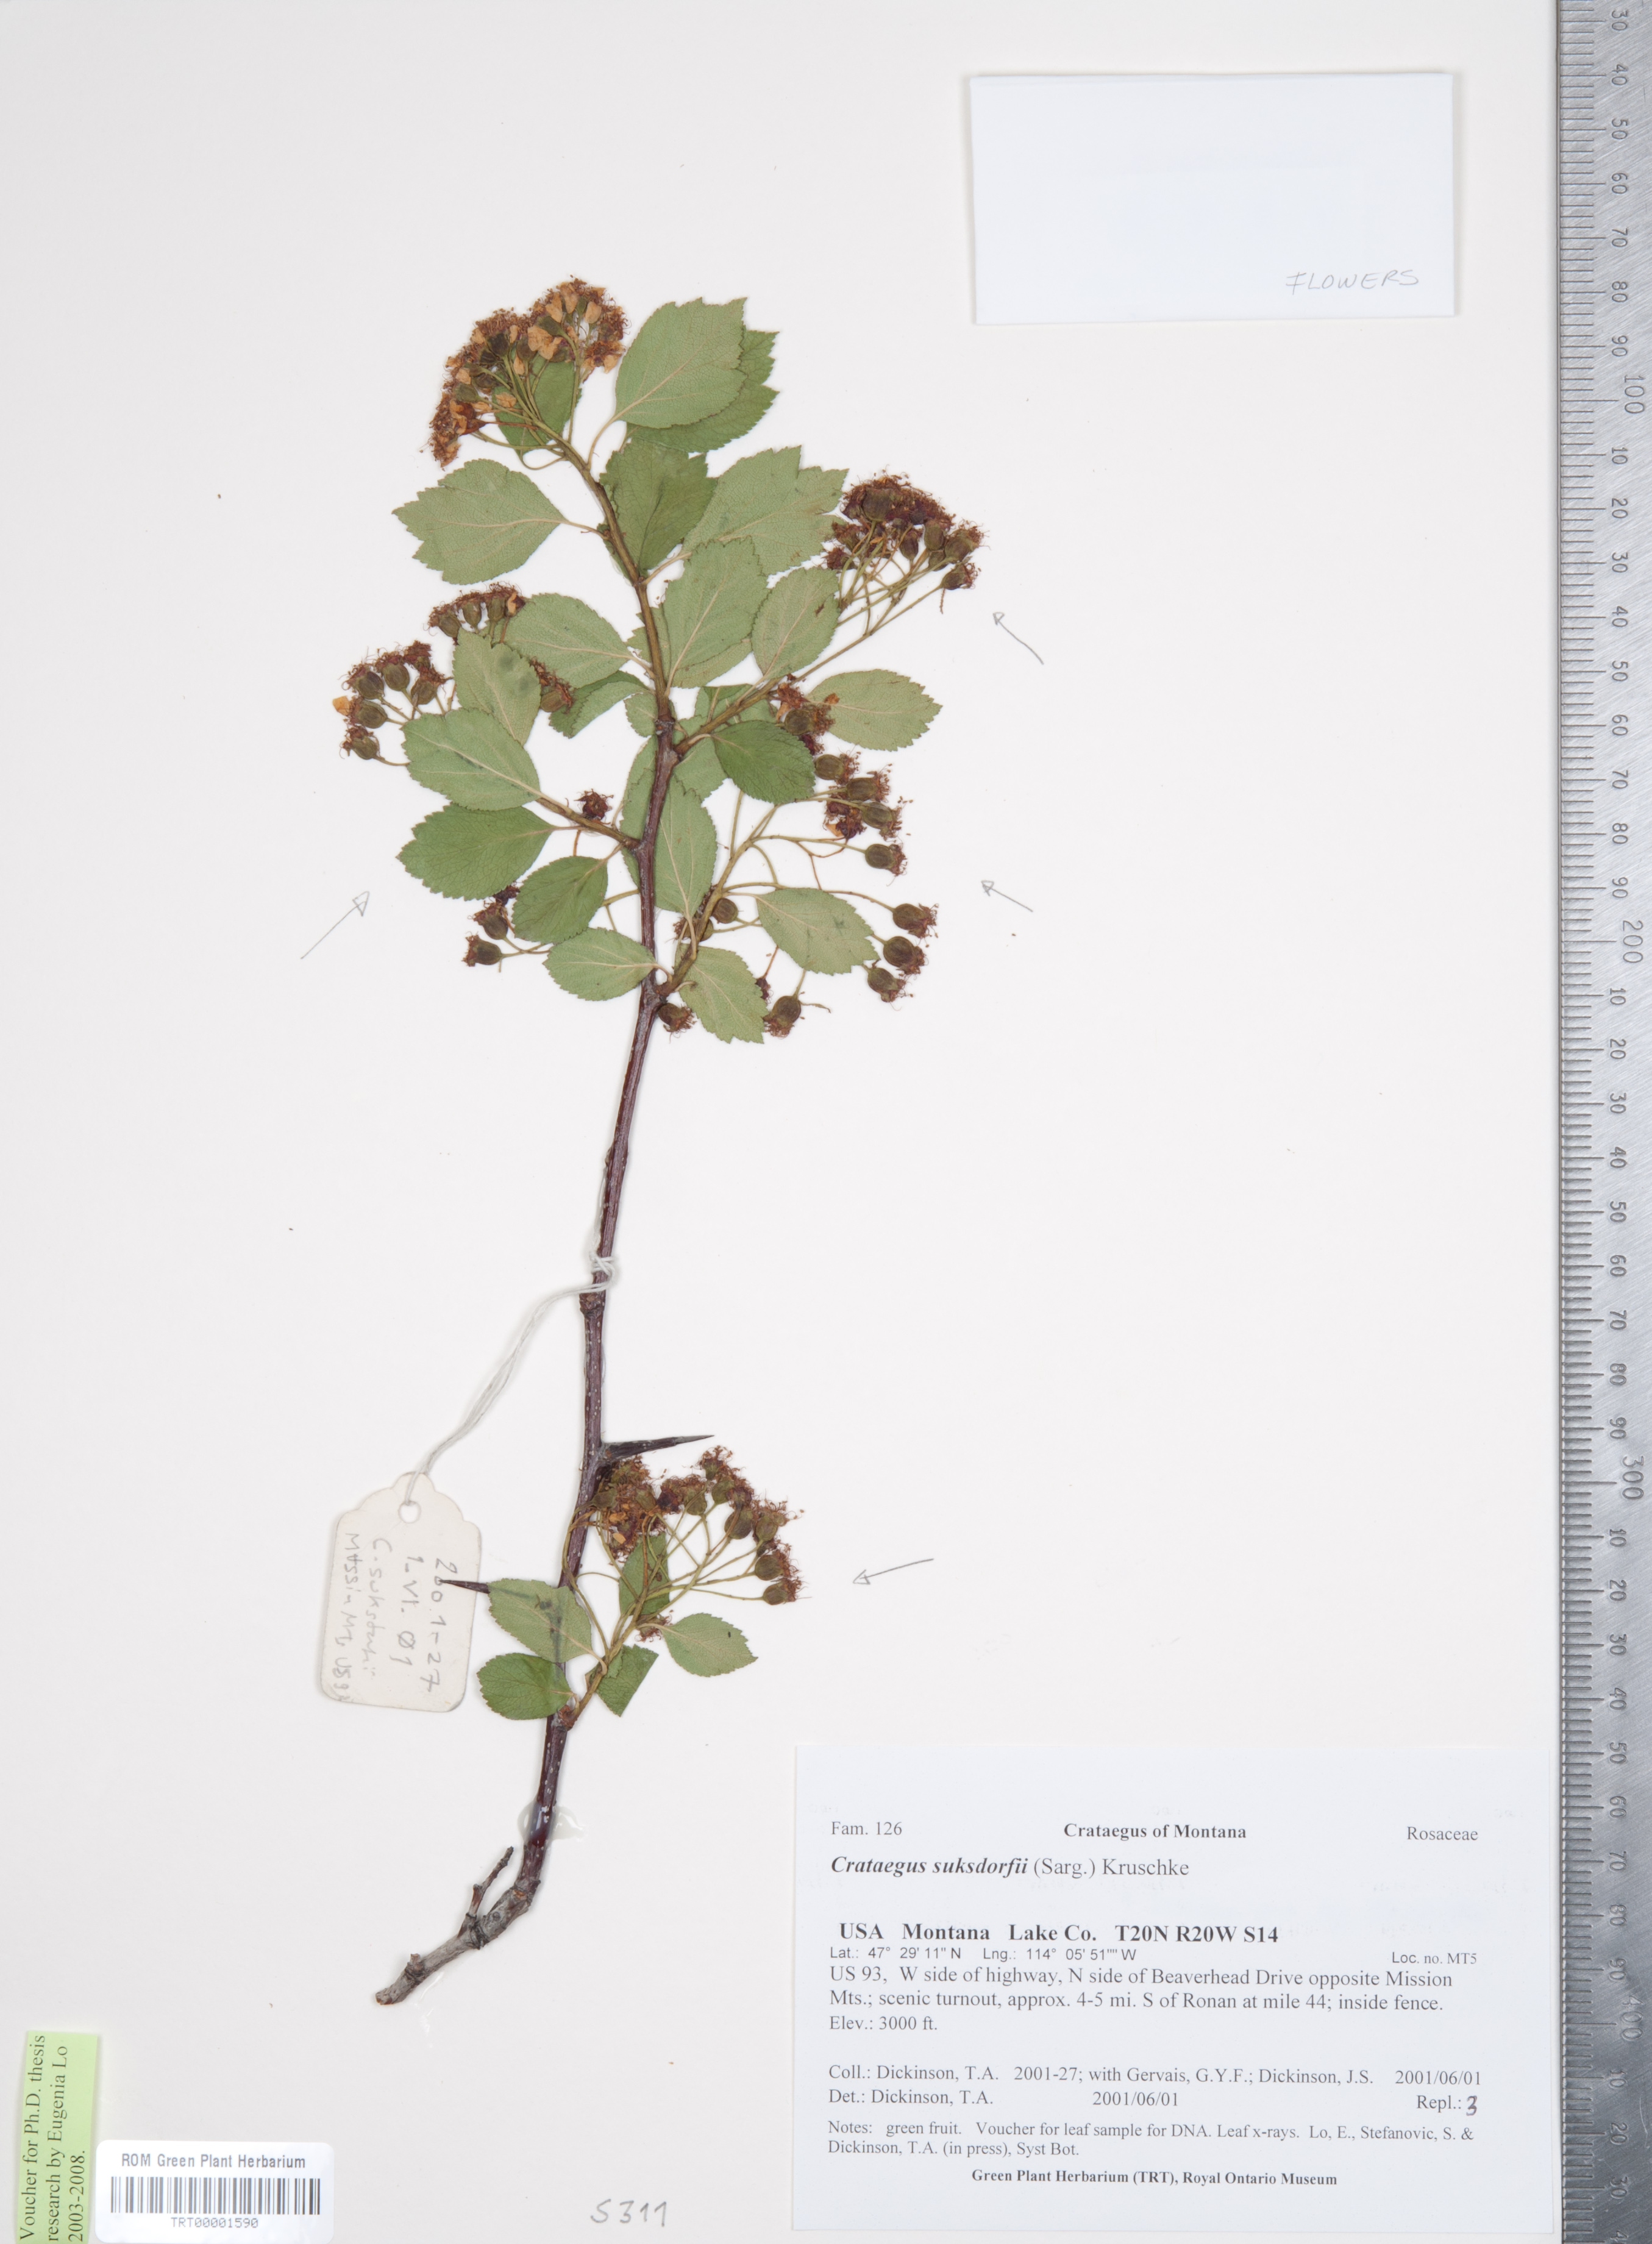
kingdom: Plantae
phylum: Tracheophyta
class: Magnoliopsida
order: Rosales
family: Rosaceae
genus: Crataegus
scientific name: Crataegus gaylussacia
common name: Huckleberry hawthorn
